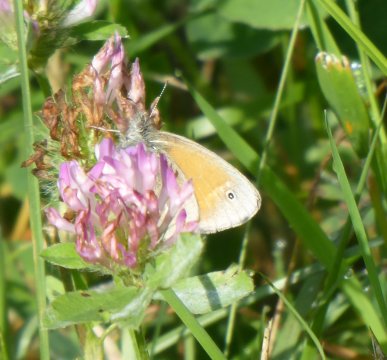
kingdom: Animalia
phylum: Arthropoda
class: Insecta
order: Lepidoptera
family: Nymphalidae
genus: Coenonympha
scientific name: Coenonympha tullia
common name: Large Heath
